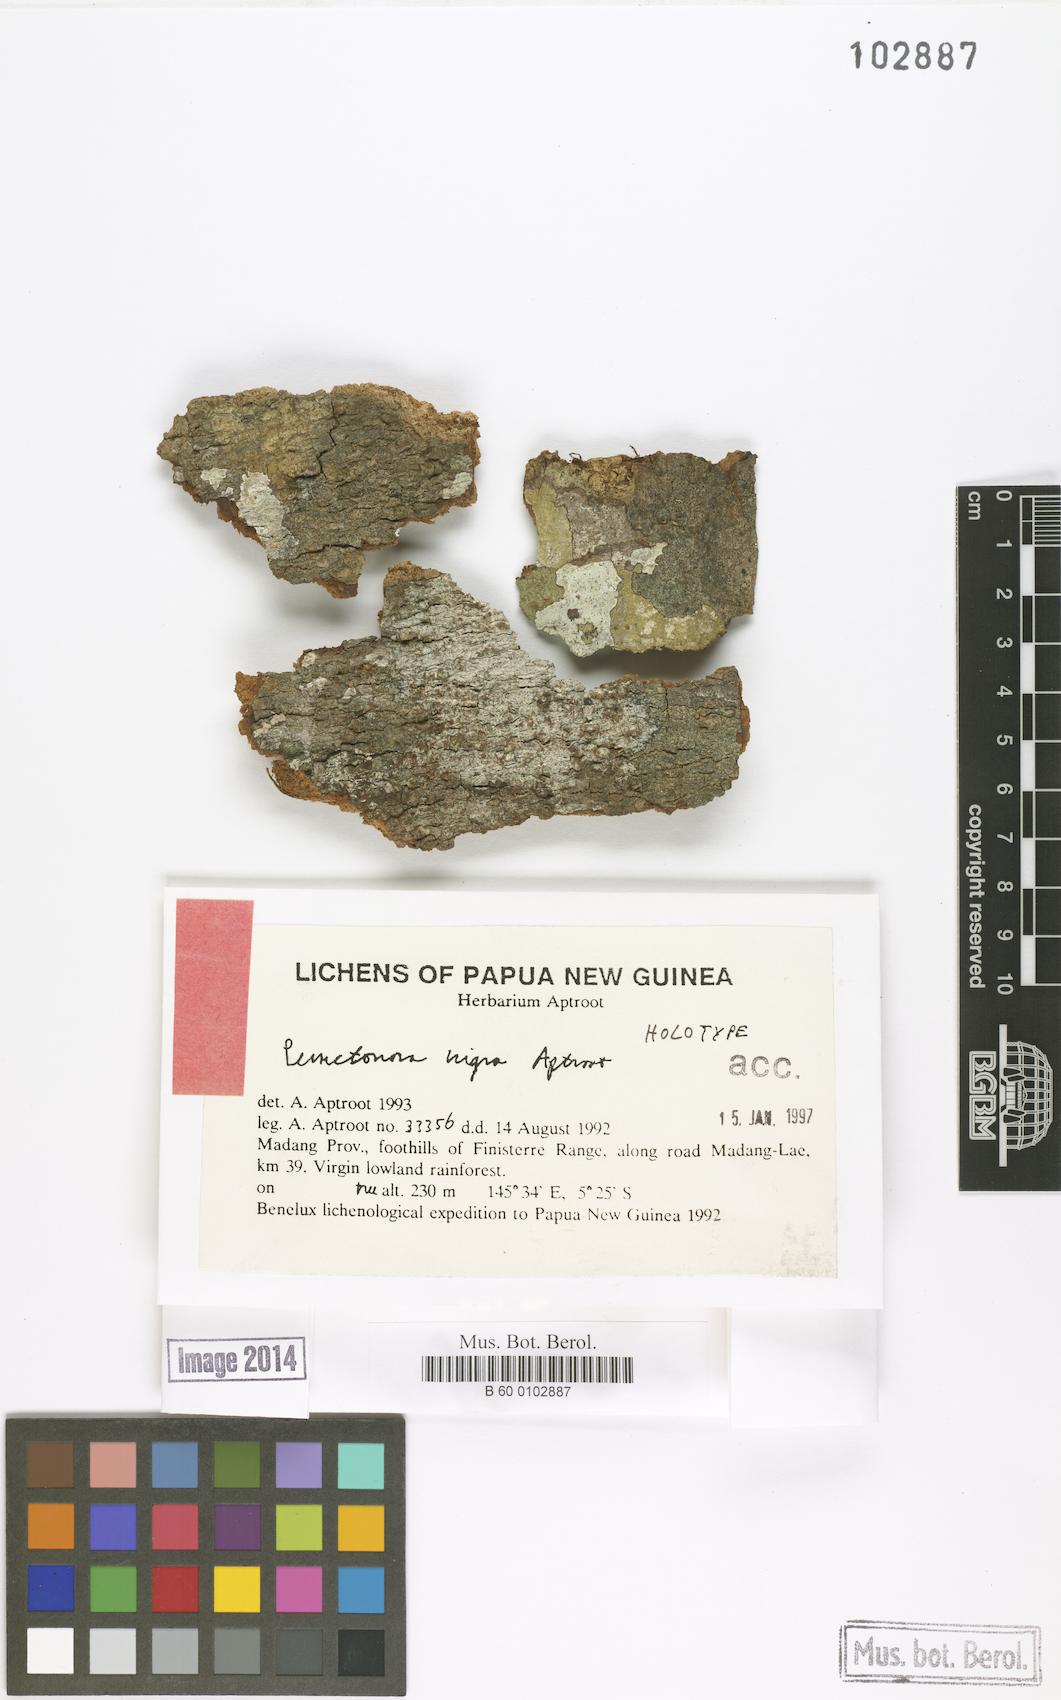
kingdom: Fungi
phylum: Ascomycota
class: Lecanoromycetes
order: Lecanorales
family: Lecanoraceae
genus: Punctonora
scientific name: Punctonora
